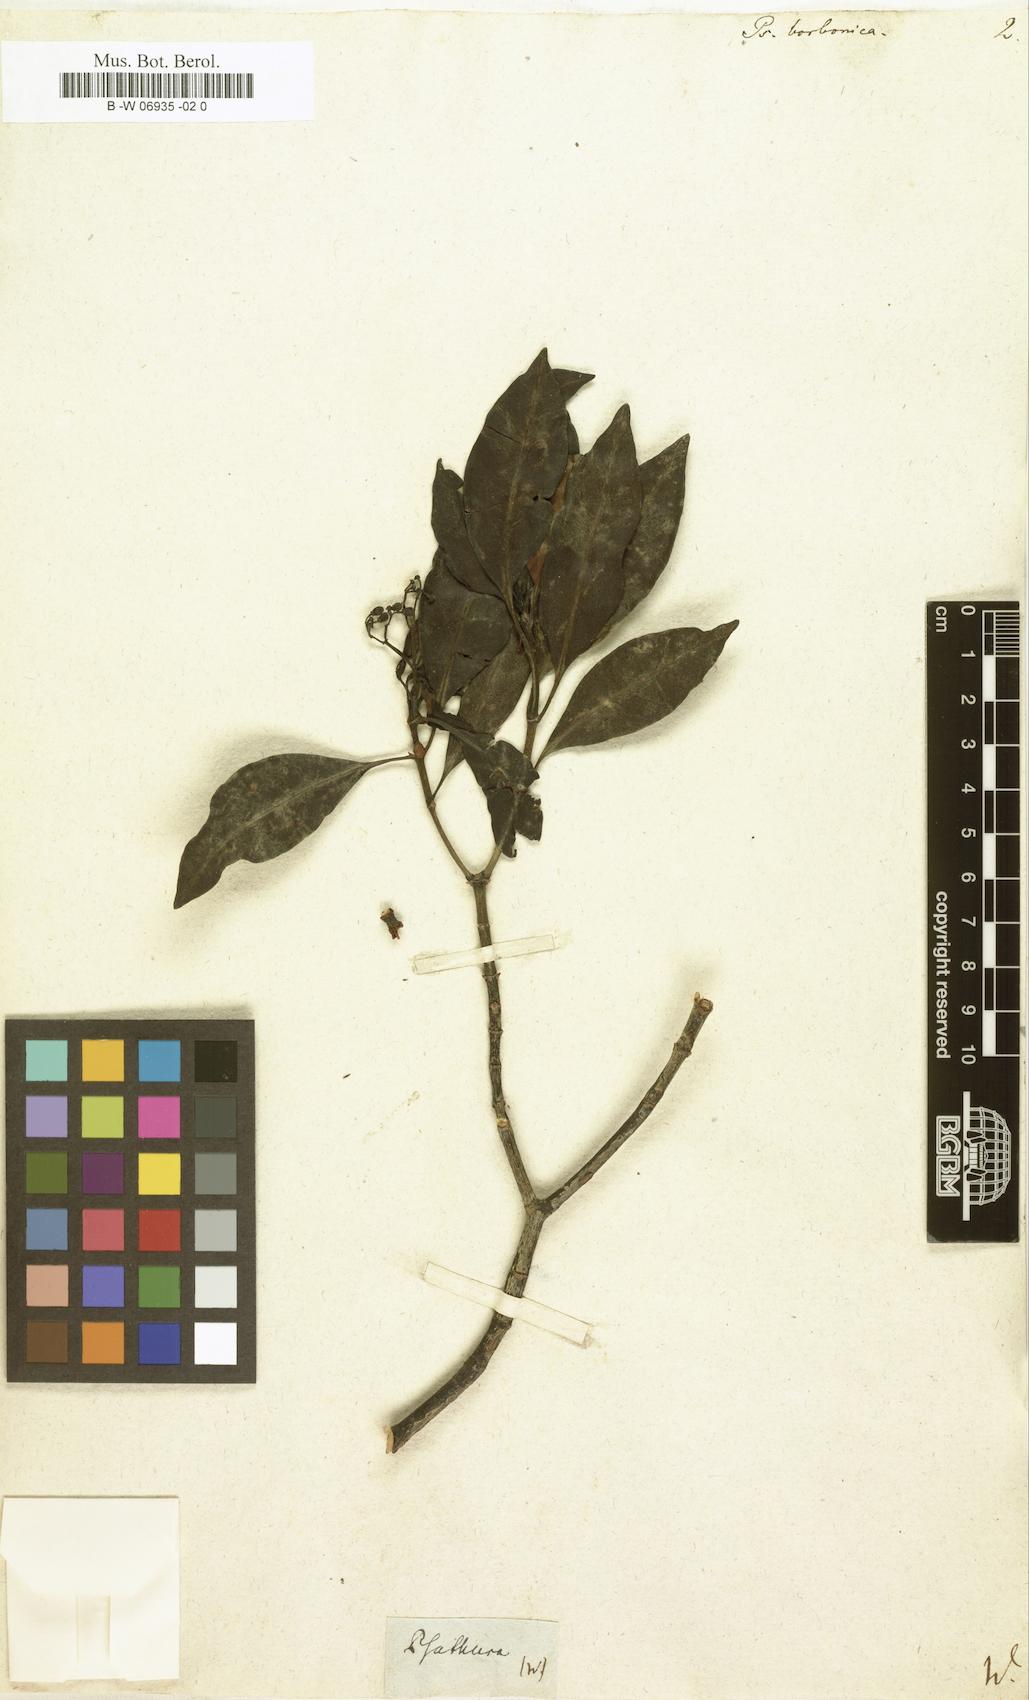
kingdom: Plantae
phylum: Tracheophyta
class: Magnoliopsida
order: Gentianales
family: Rubiaceae
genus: Psychotria
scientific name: Psychotria borbonica
